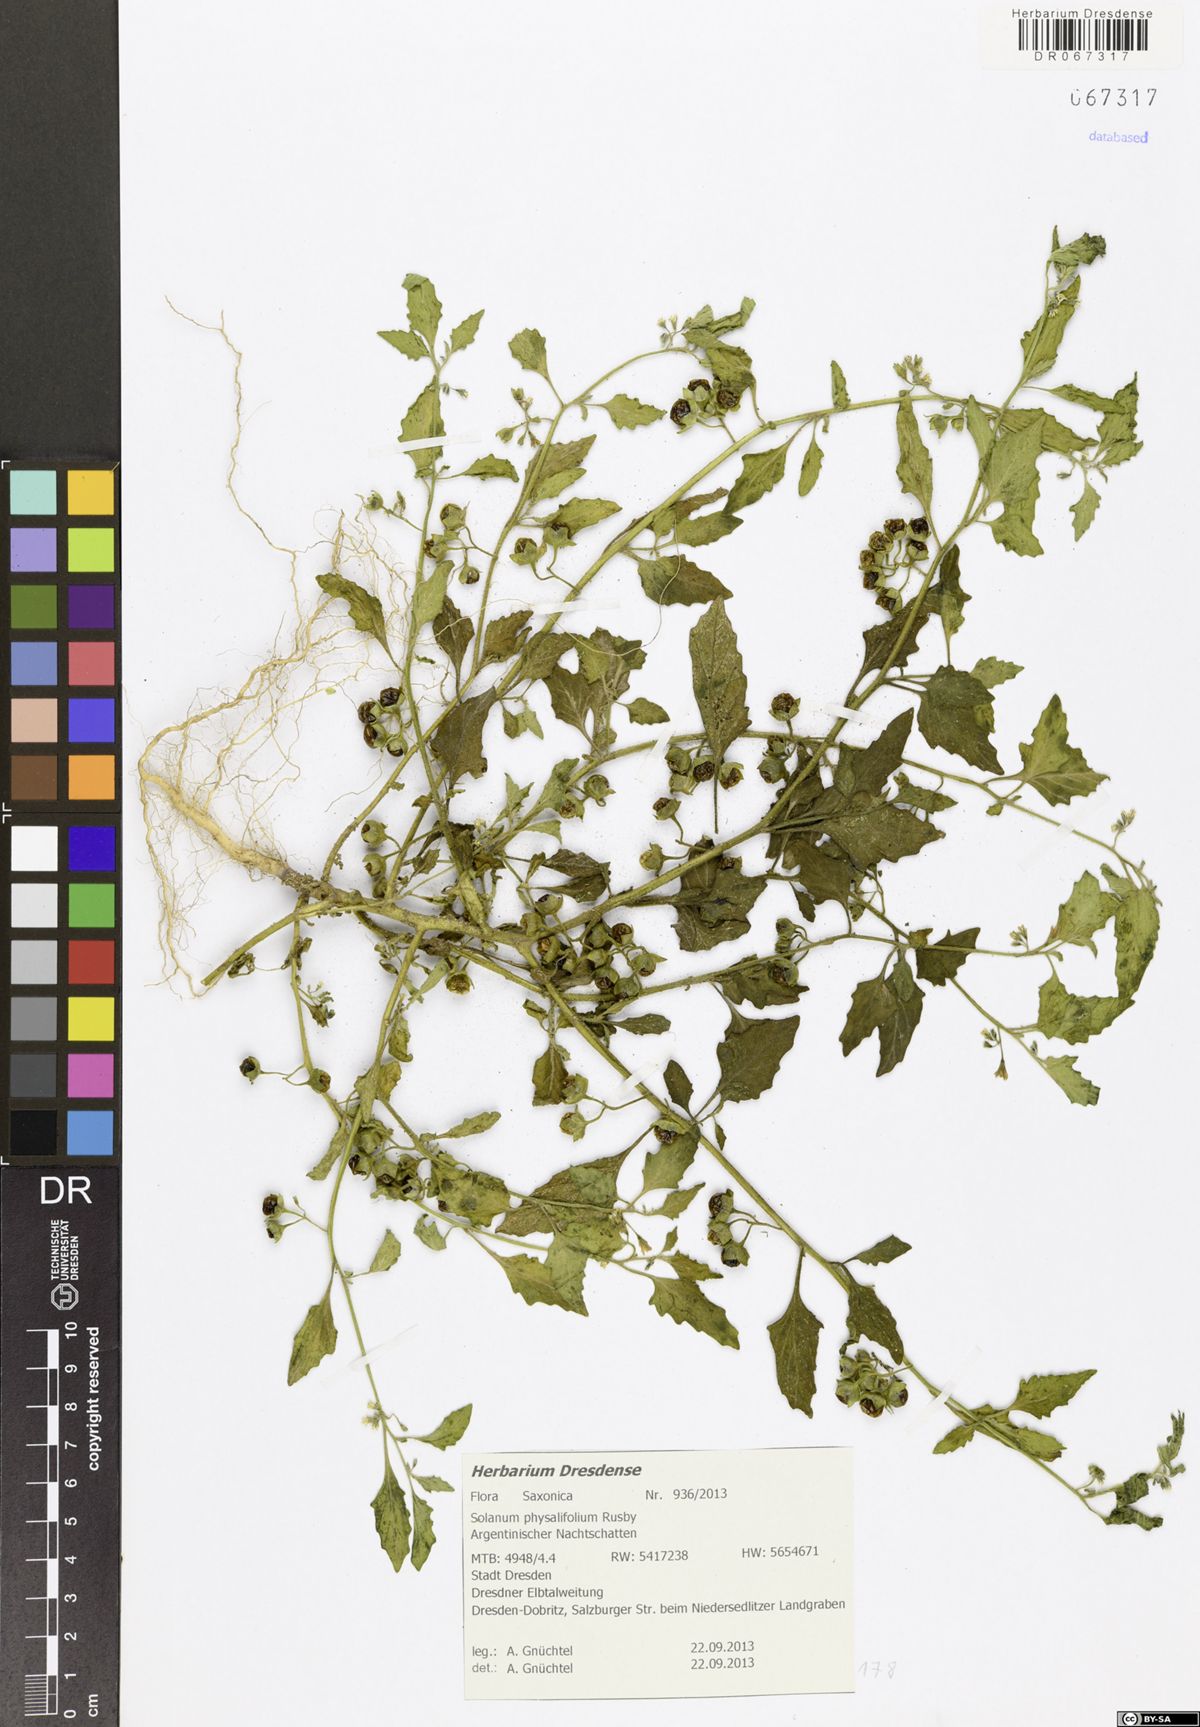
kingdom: Plantae
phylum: Tracheophyta
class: Magnoliopsida
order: Solanales
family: Solanaceae
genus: Solanum
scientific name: Solanum physalifolium
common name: Green nightshade
